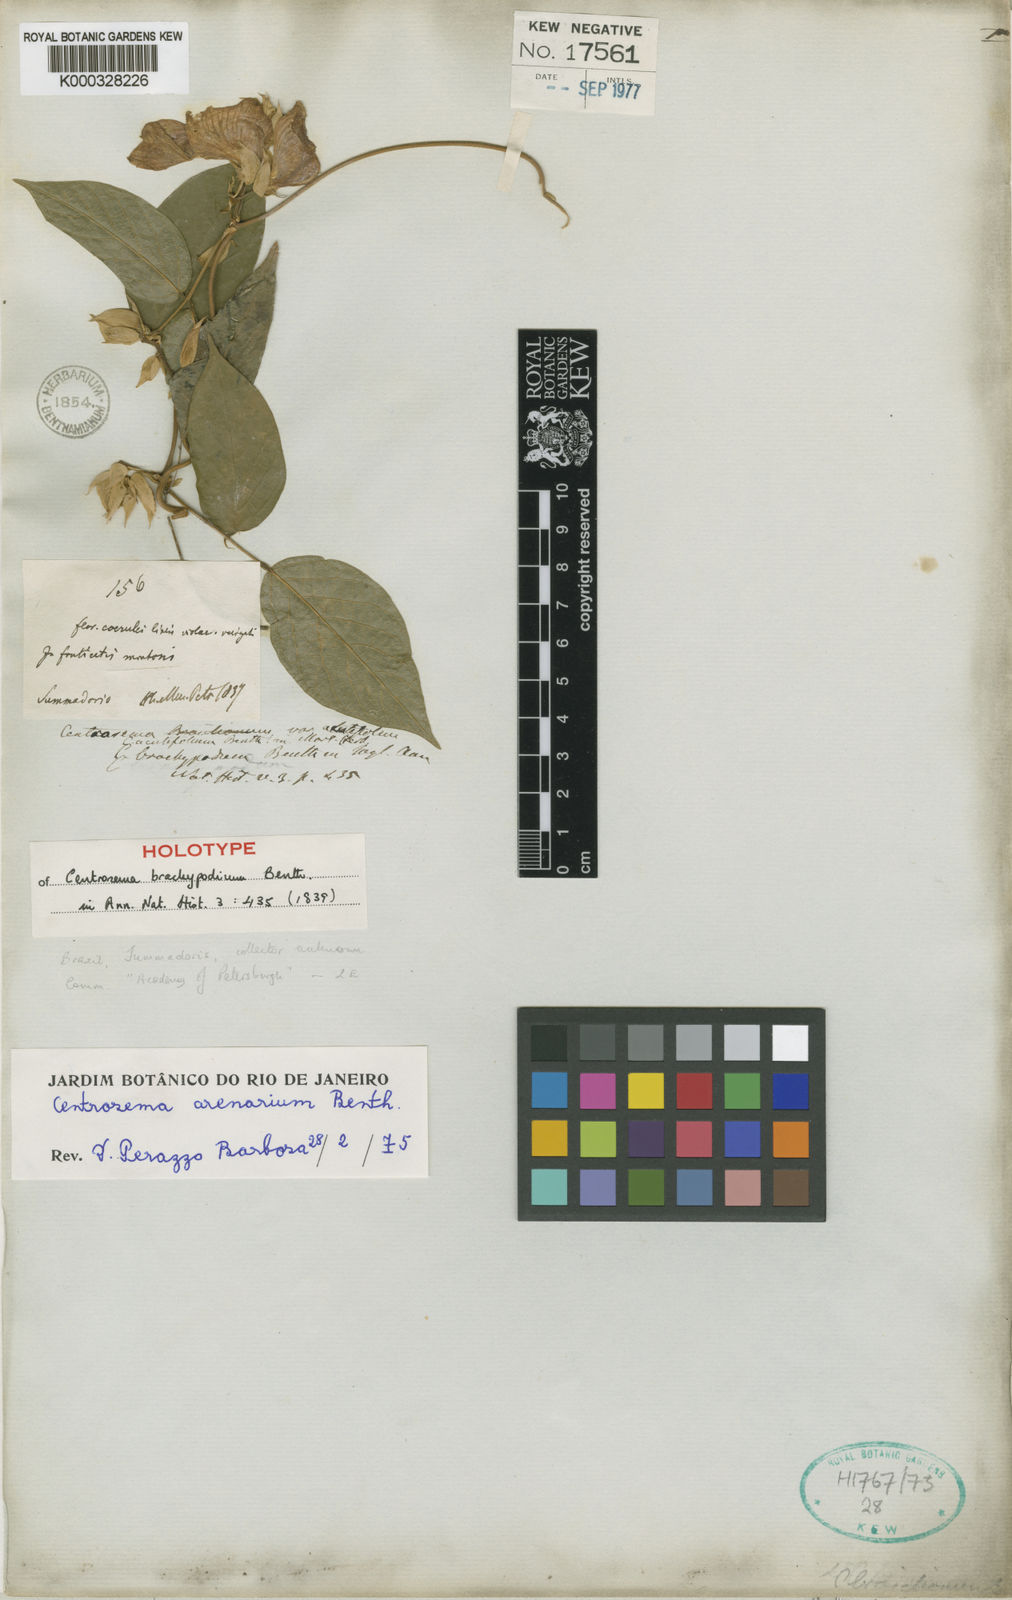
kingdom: Plantae
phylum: Tracheophyta
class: Magnoliopsida
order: Fabales
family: Fabaceae
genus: Centrosema
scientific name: Centrosema arenarium
